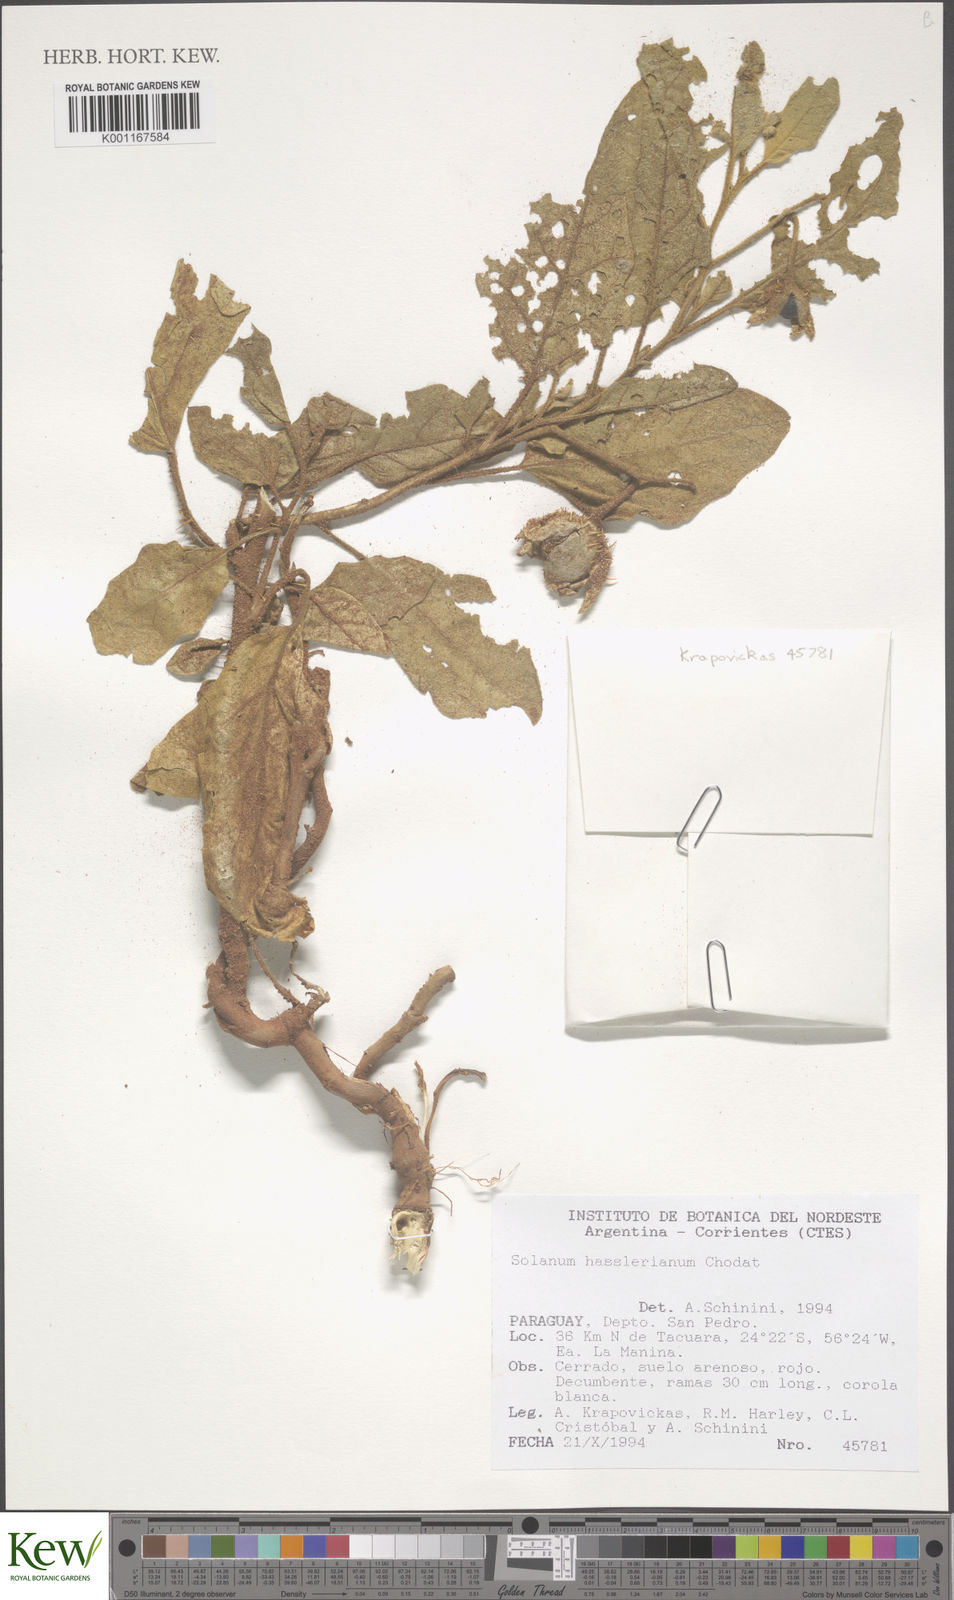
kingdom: Plantae
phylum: Tracheophyta
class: Magnoliopsida
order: Solanales
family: Solanaceae
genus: Solanum
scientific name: Solanum hasslerianum
